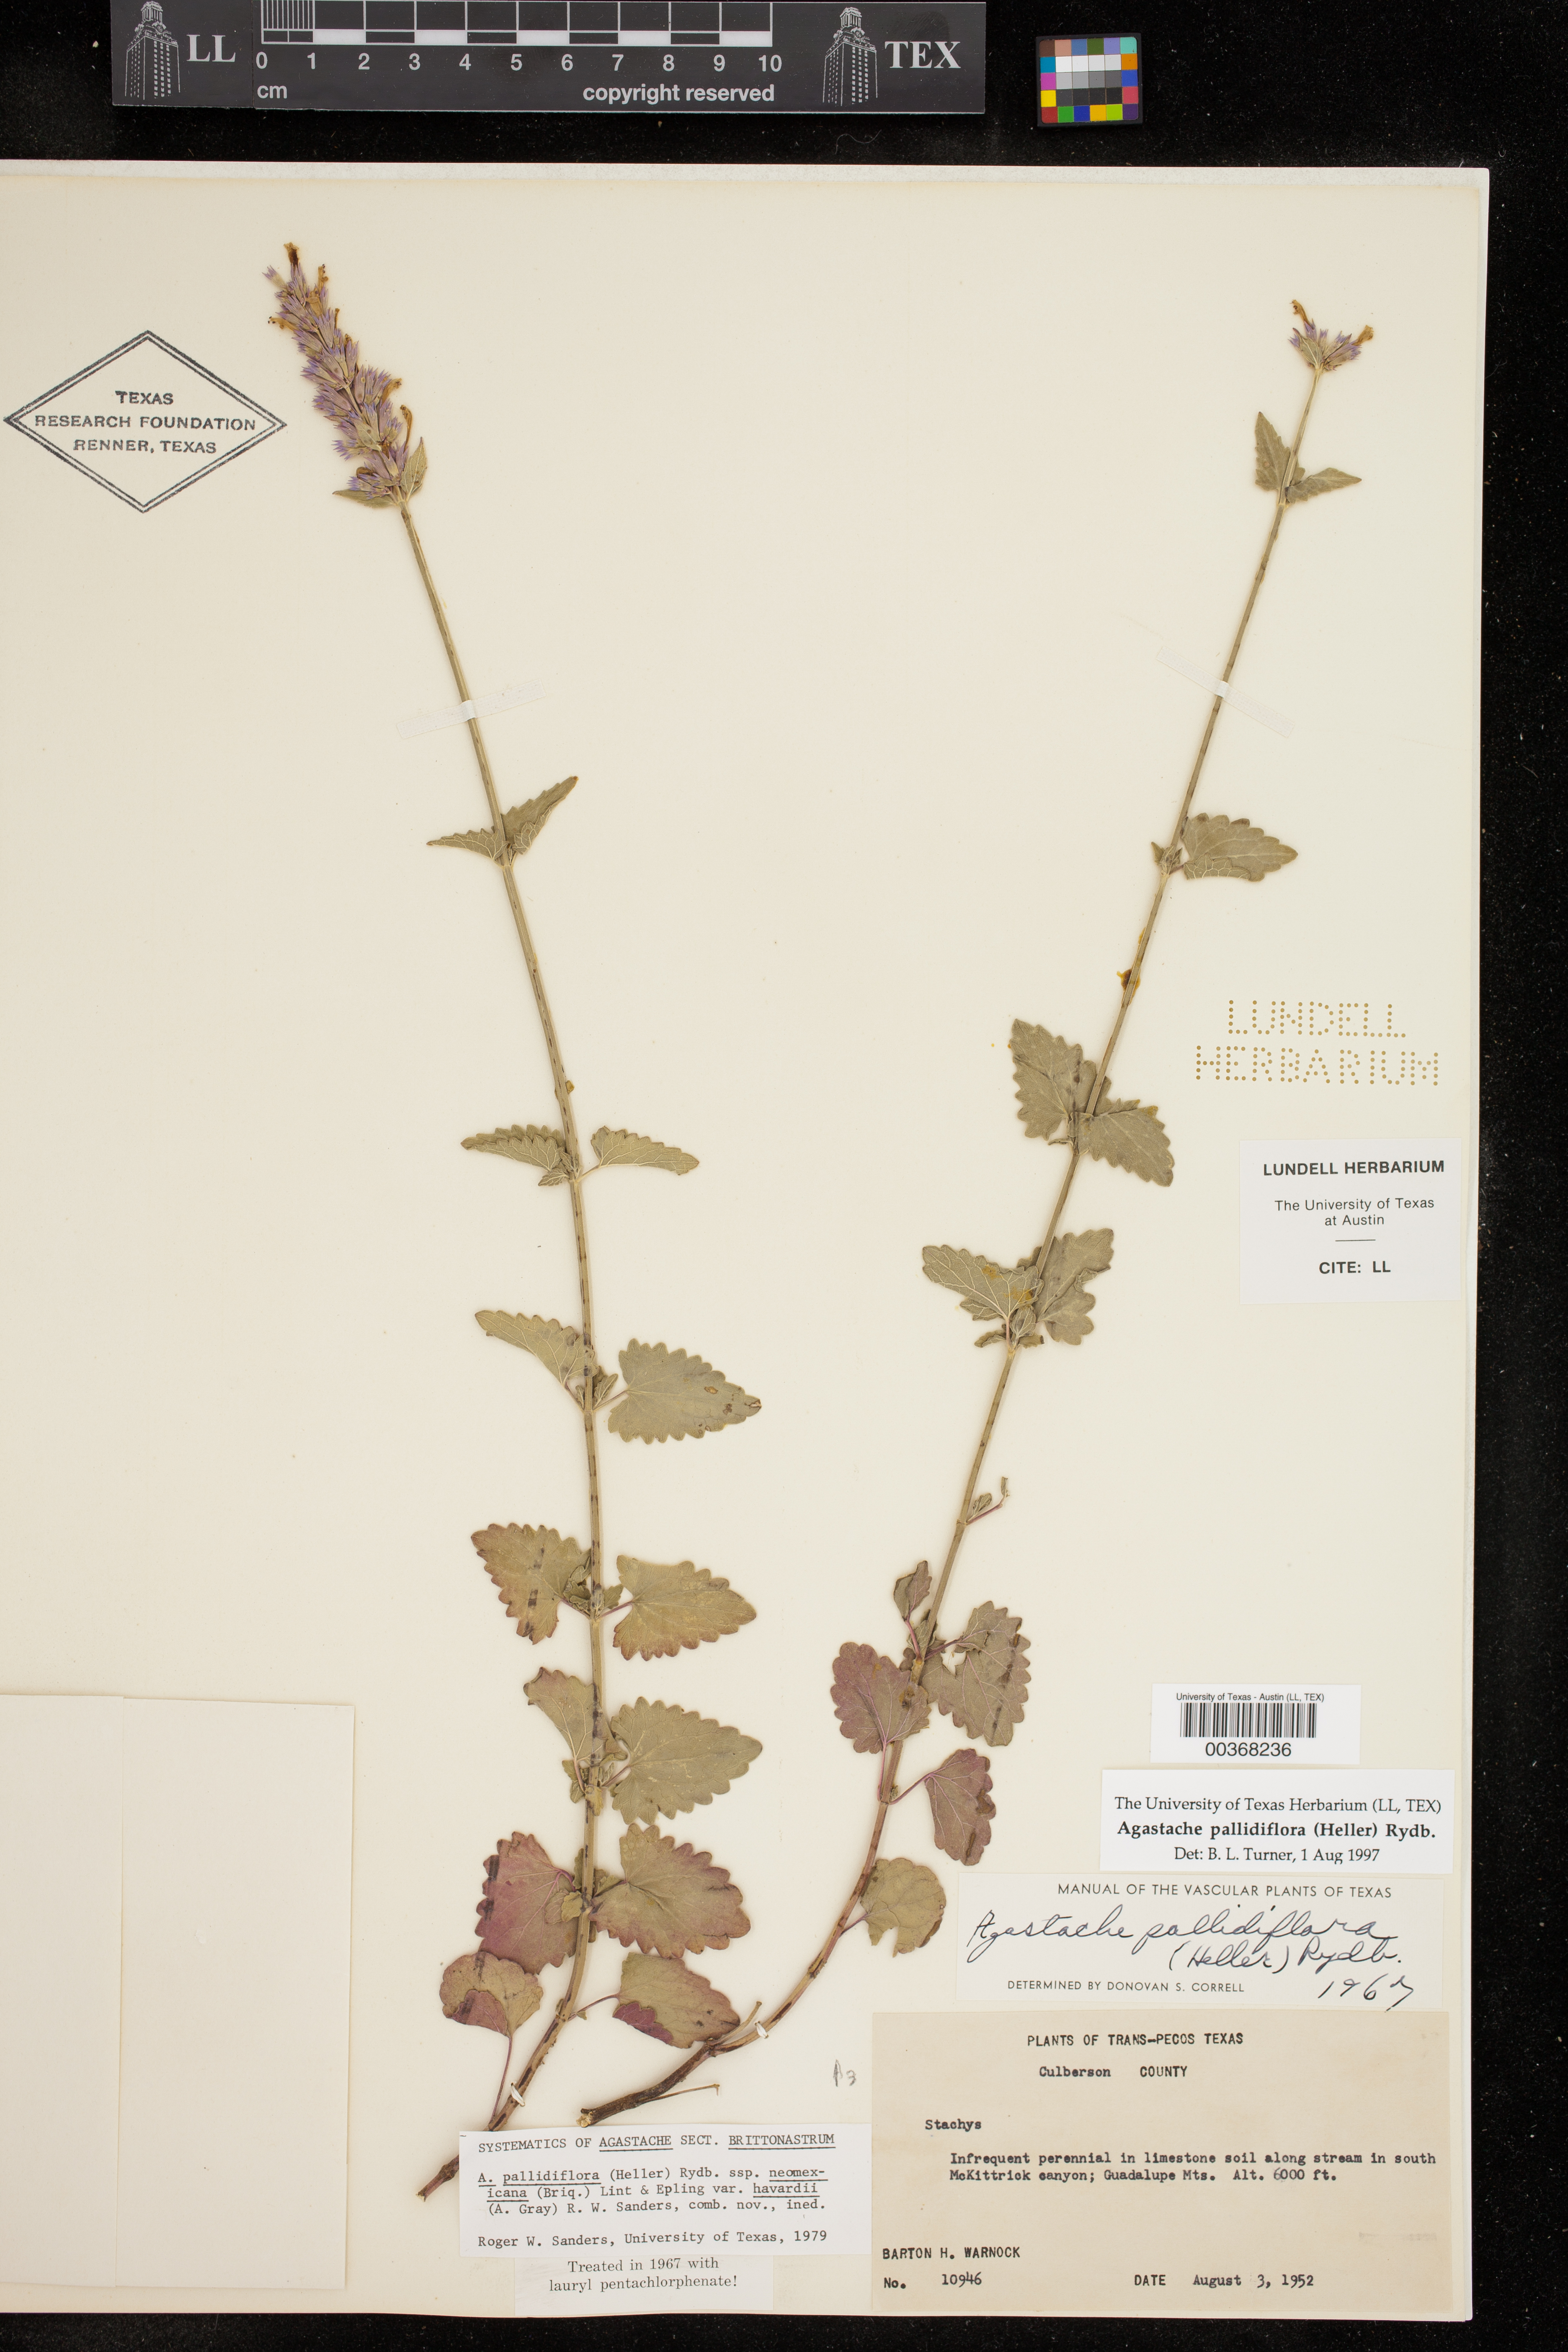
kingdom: Plantae
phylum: Tracheophyta
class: Magnoliopsida
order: Lamiales
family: Lamiaceae
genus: Agastache
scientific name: Agastache pallidiflora
